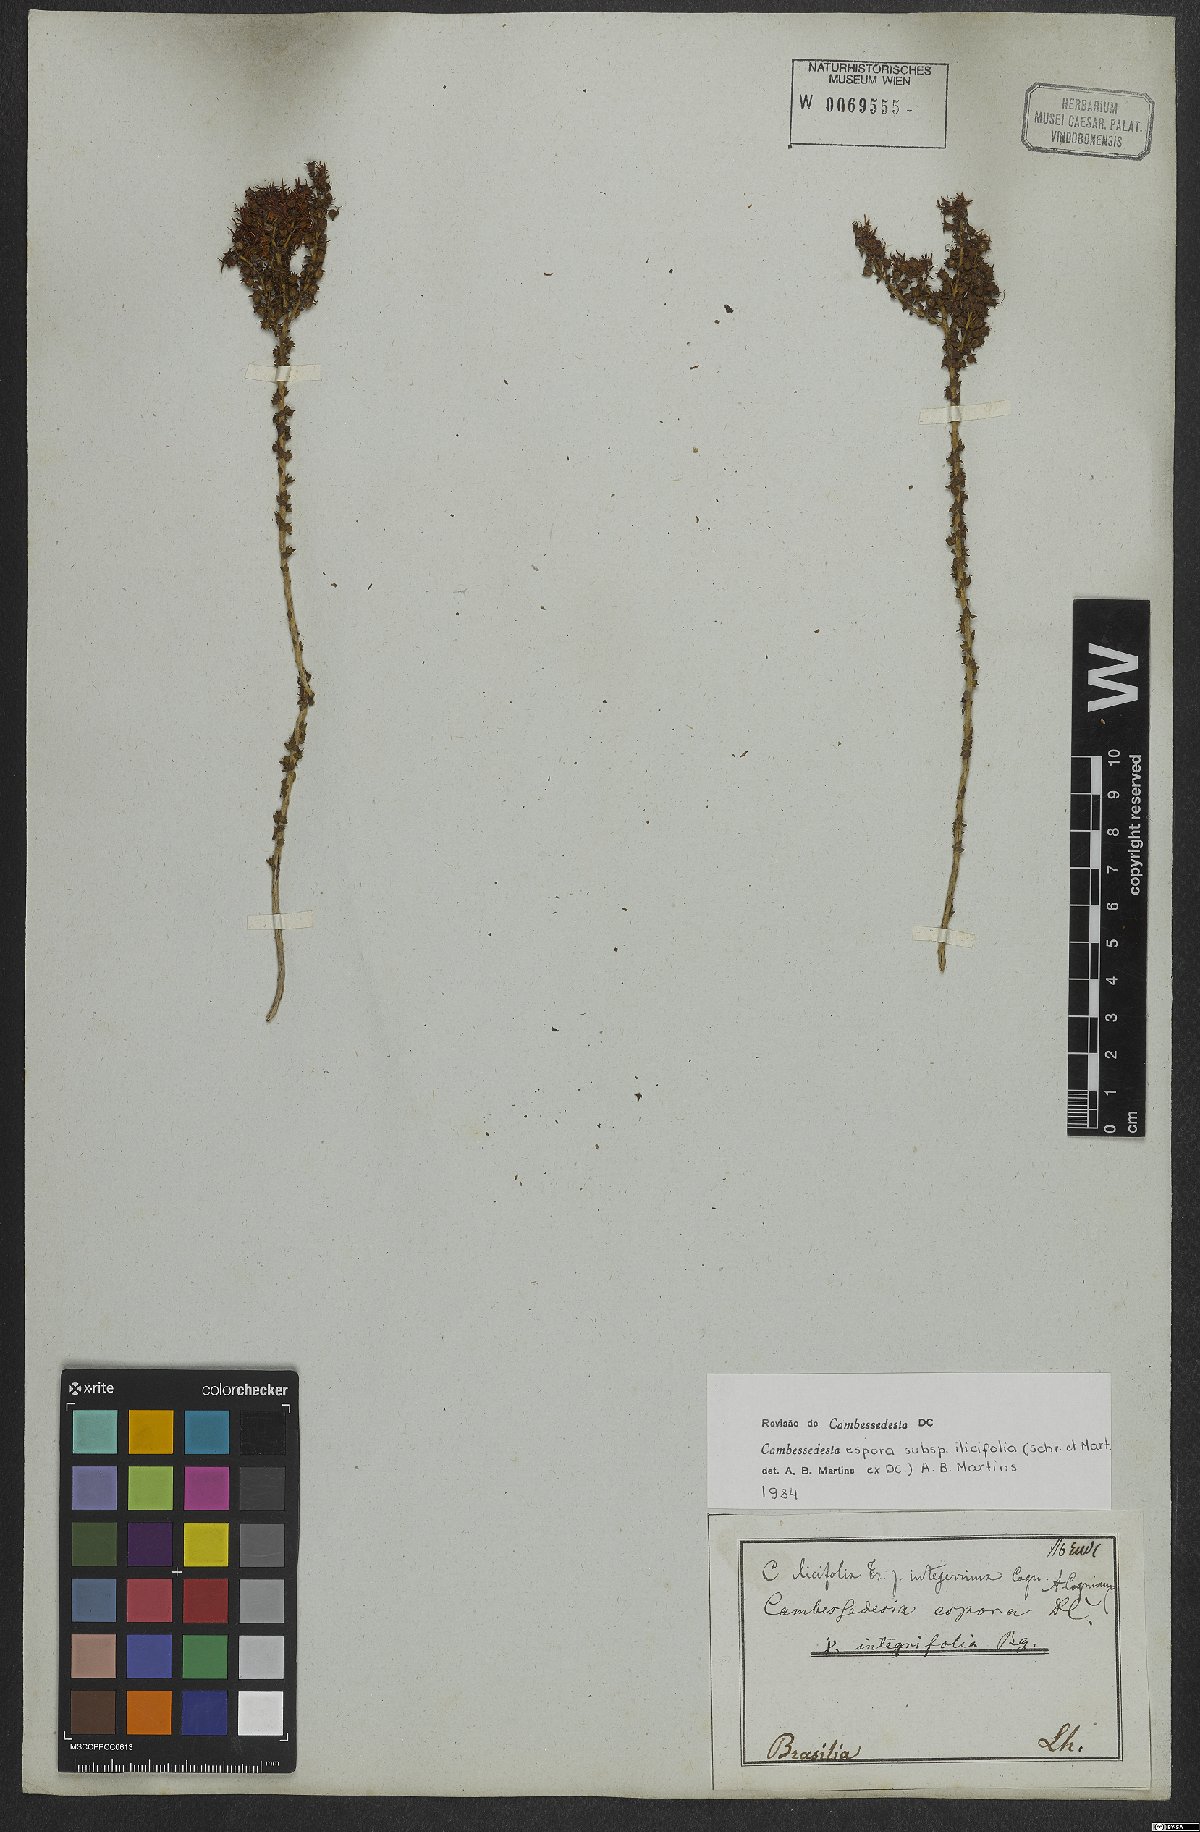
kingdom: Plantae
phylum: Tracheophyta
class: Magnoliopsida
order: Myrtales
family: Melastomataceae
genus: Cambessedesia
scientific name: Cambessedesia espora
